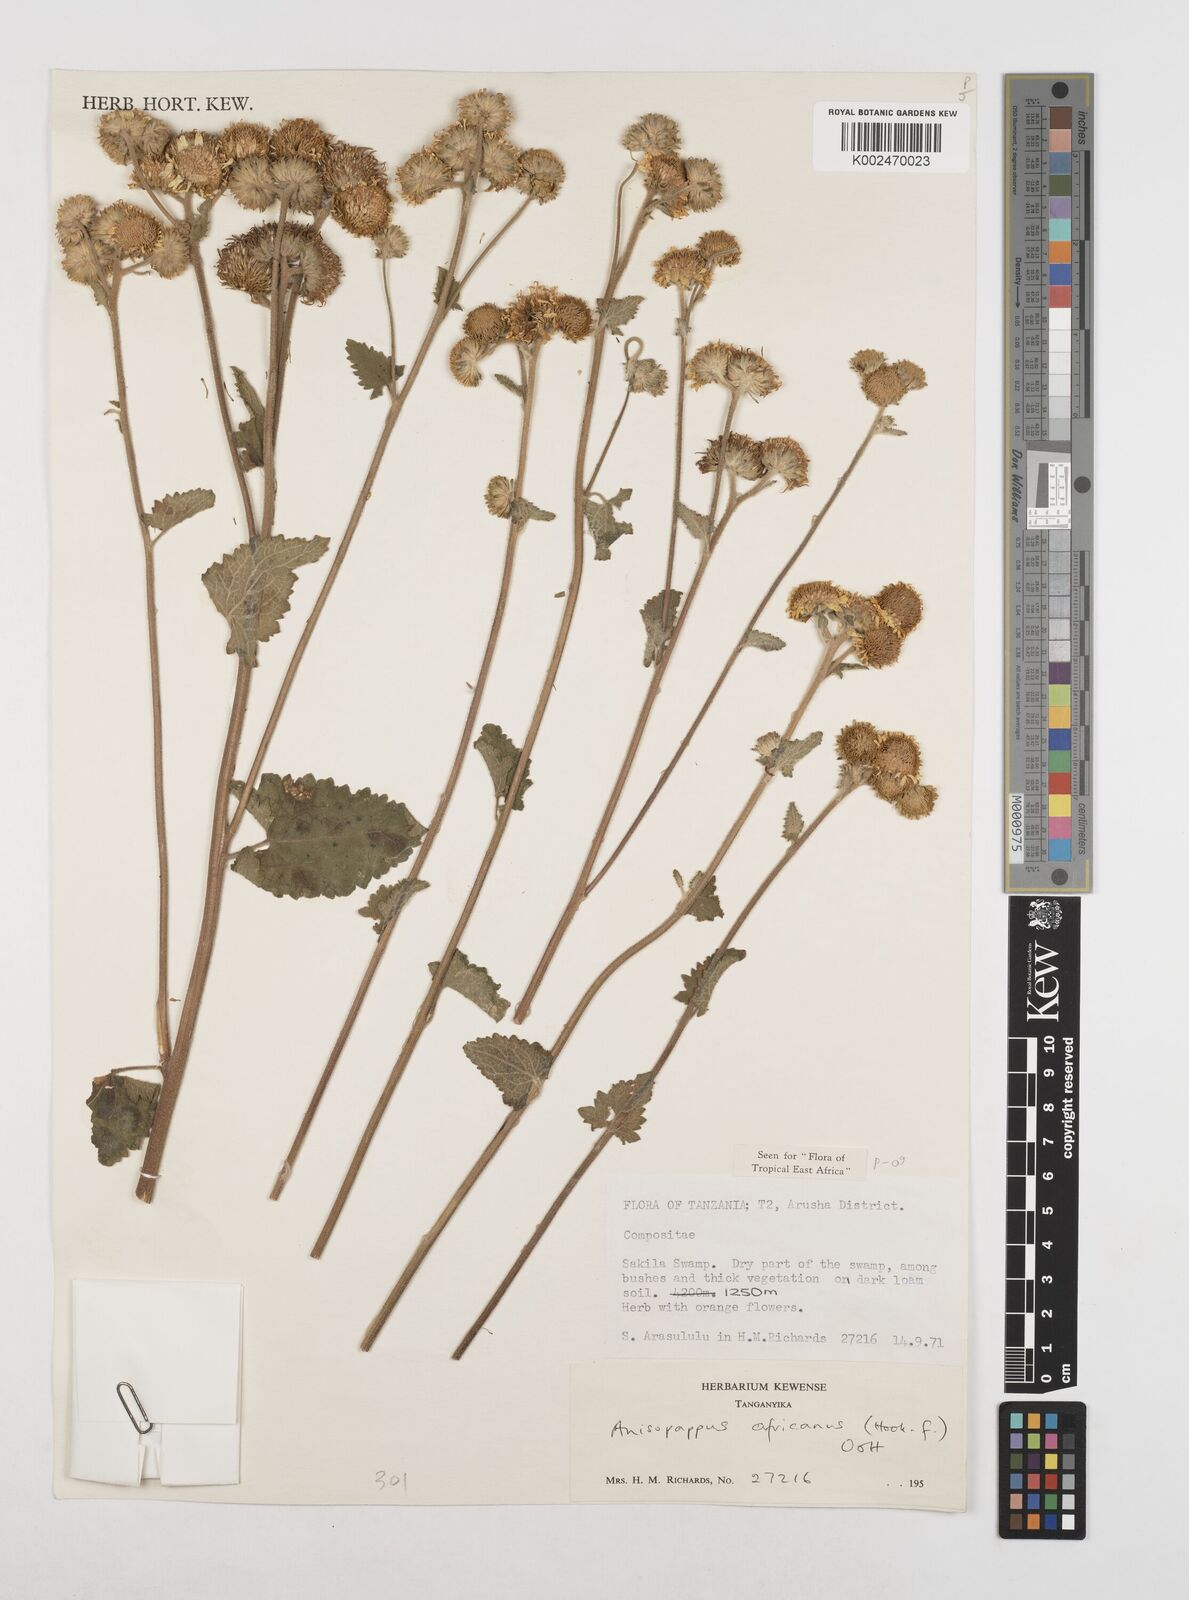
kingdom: Plantae
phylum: Tracheophyta
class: Magnoliopsida
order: Asterales
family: Asteraceae
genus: Anisopappus
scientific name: Anisopappus africanus
